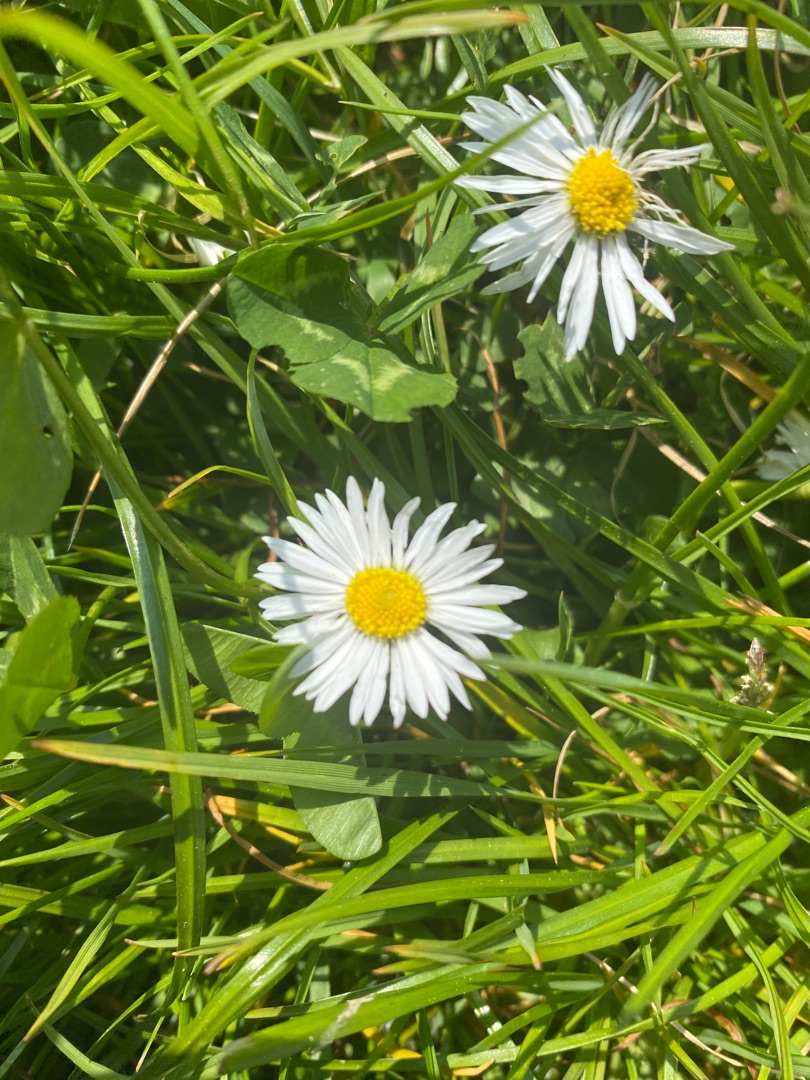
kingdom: Plantae
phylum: Tracheophyta
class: Magnoliopsida
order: Asterales
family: Asteraceae
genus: Bellis
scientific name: Bellis perennis
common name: Tusindfryd
